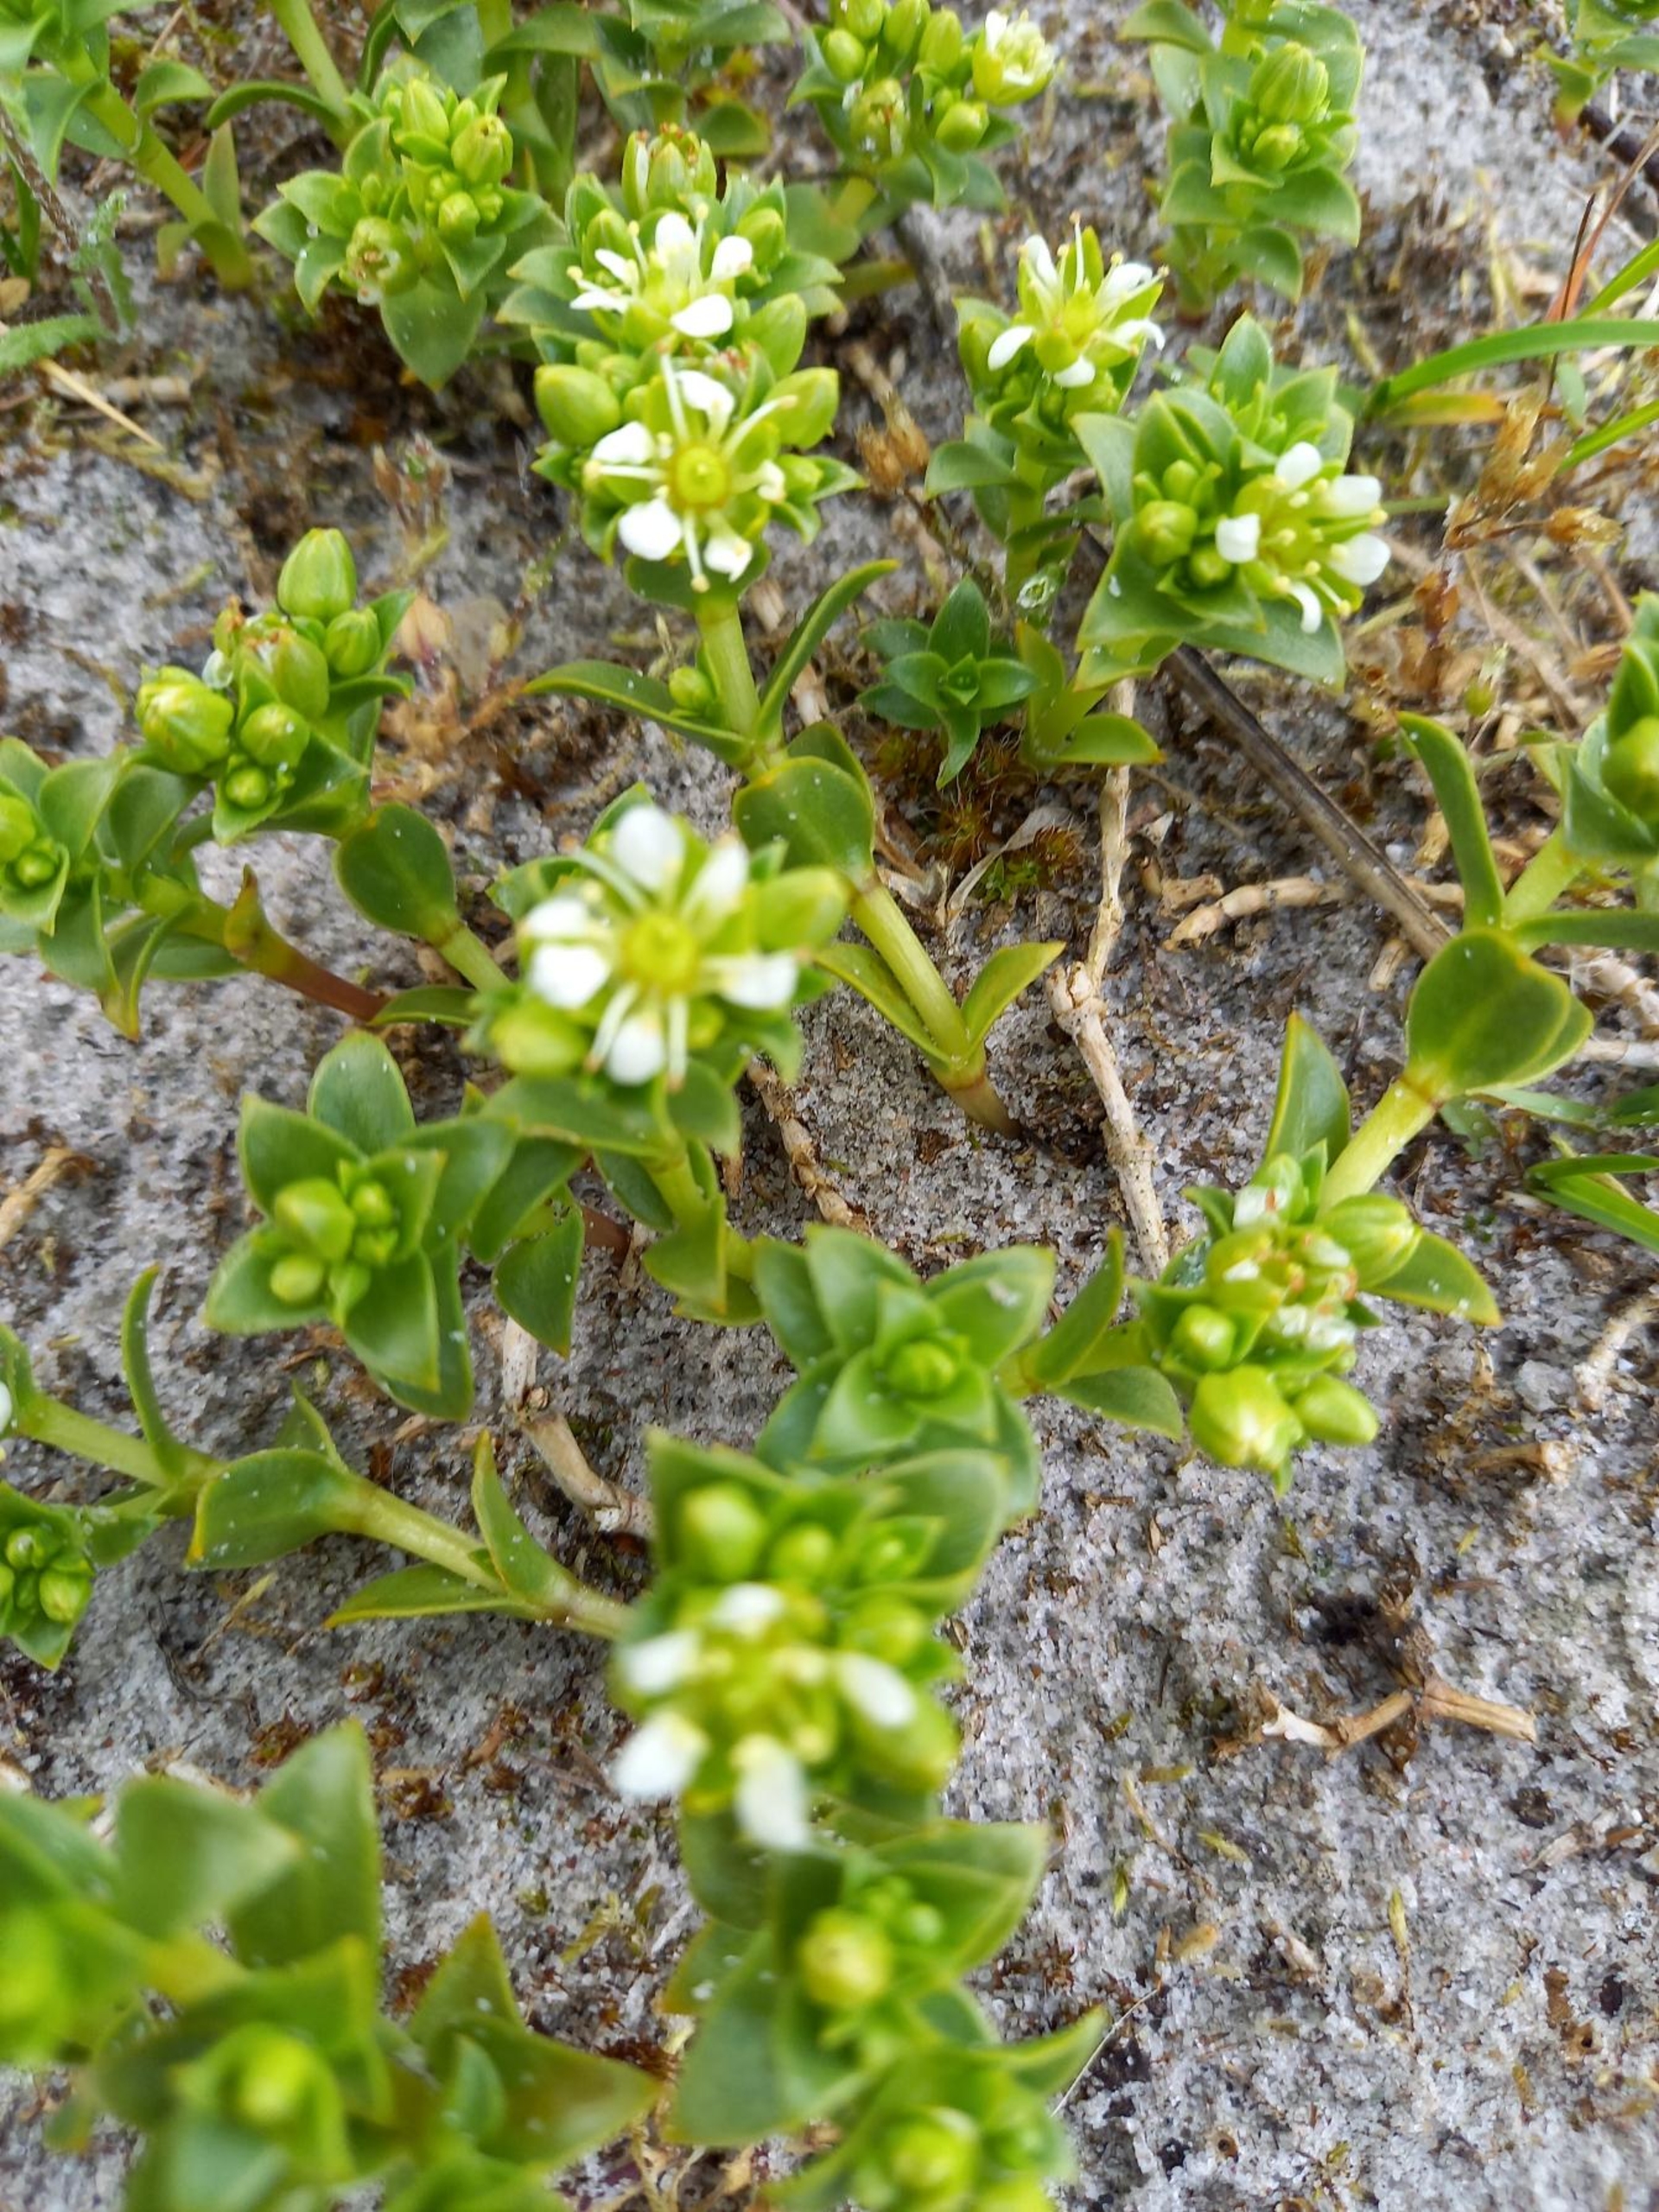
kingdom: Plantae
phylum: Tracheophyta
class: Magnoliopsida
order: Caryophyllales
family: Caryophyllaceae
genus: Honckenya
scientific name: Honckenya peploides
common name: Strandarve
